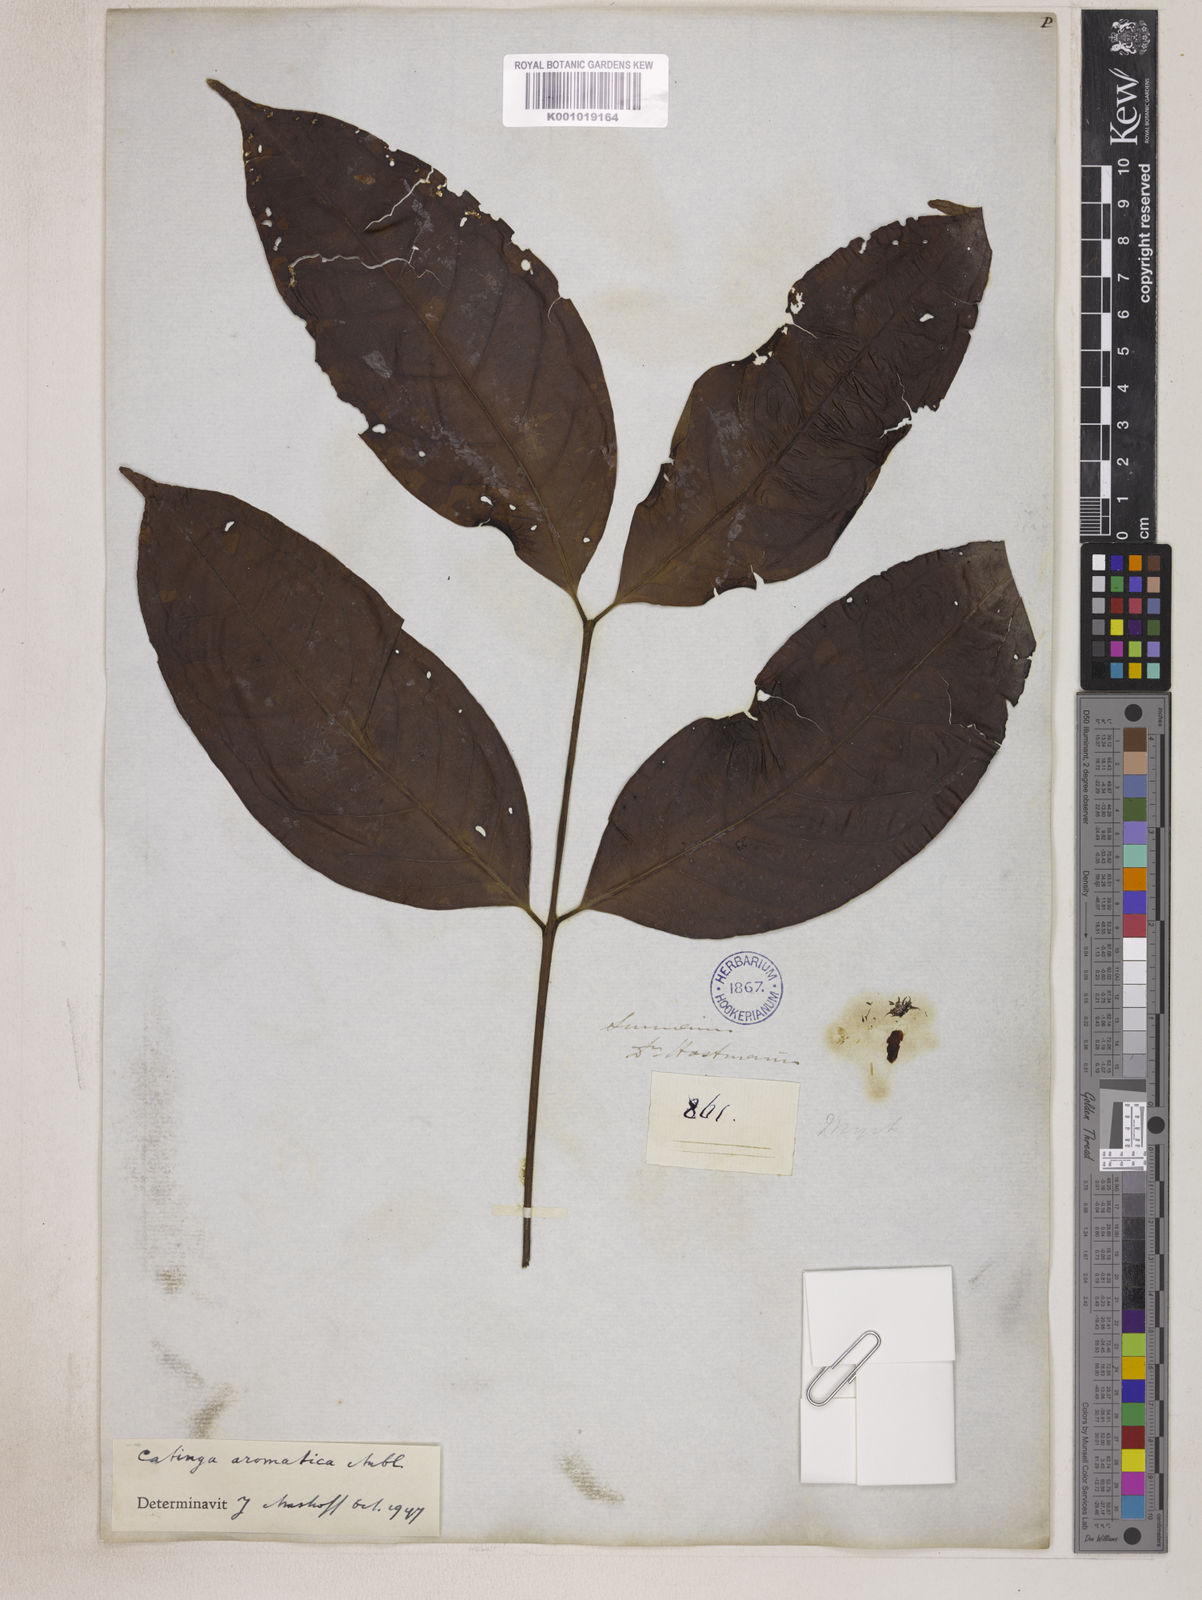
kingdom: Plantae
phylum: Tracheophyta
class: Magnoliopsida
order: Myrtales
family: Myrtaceae
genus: Eugenia
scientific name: Eugenia moschata
